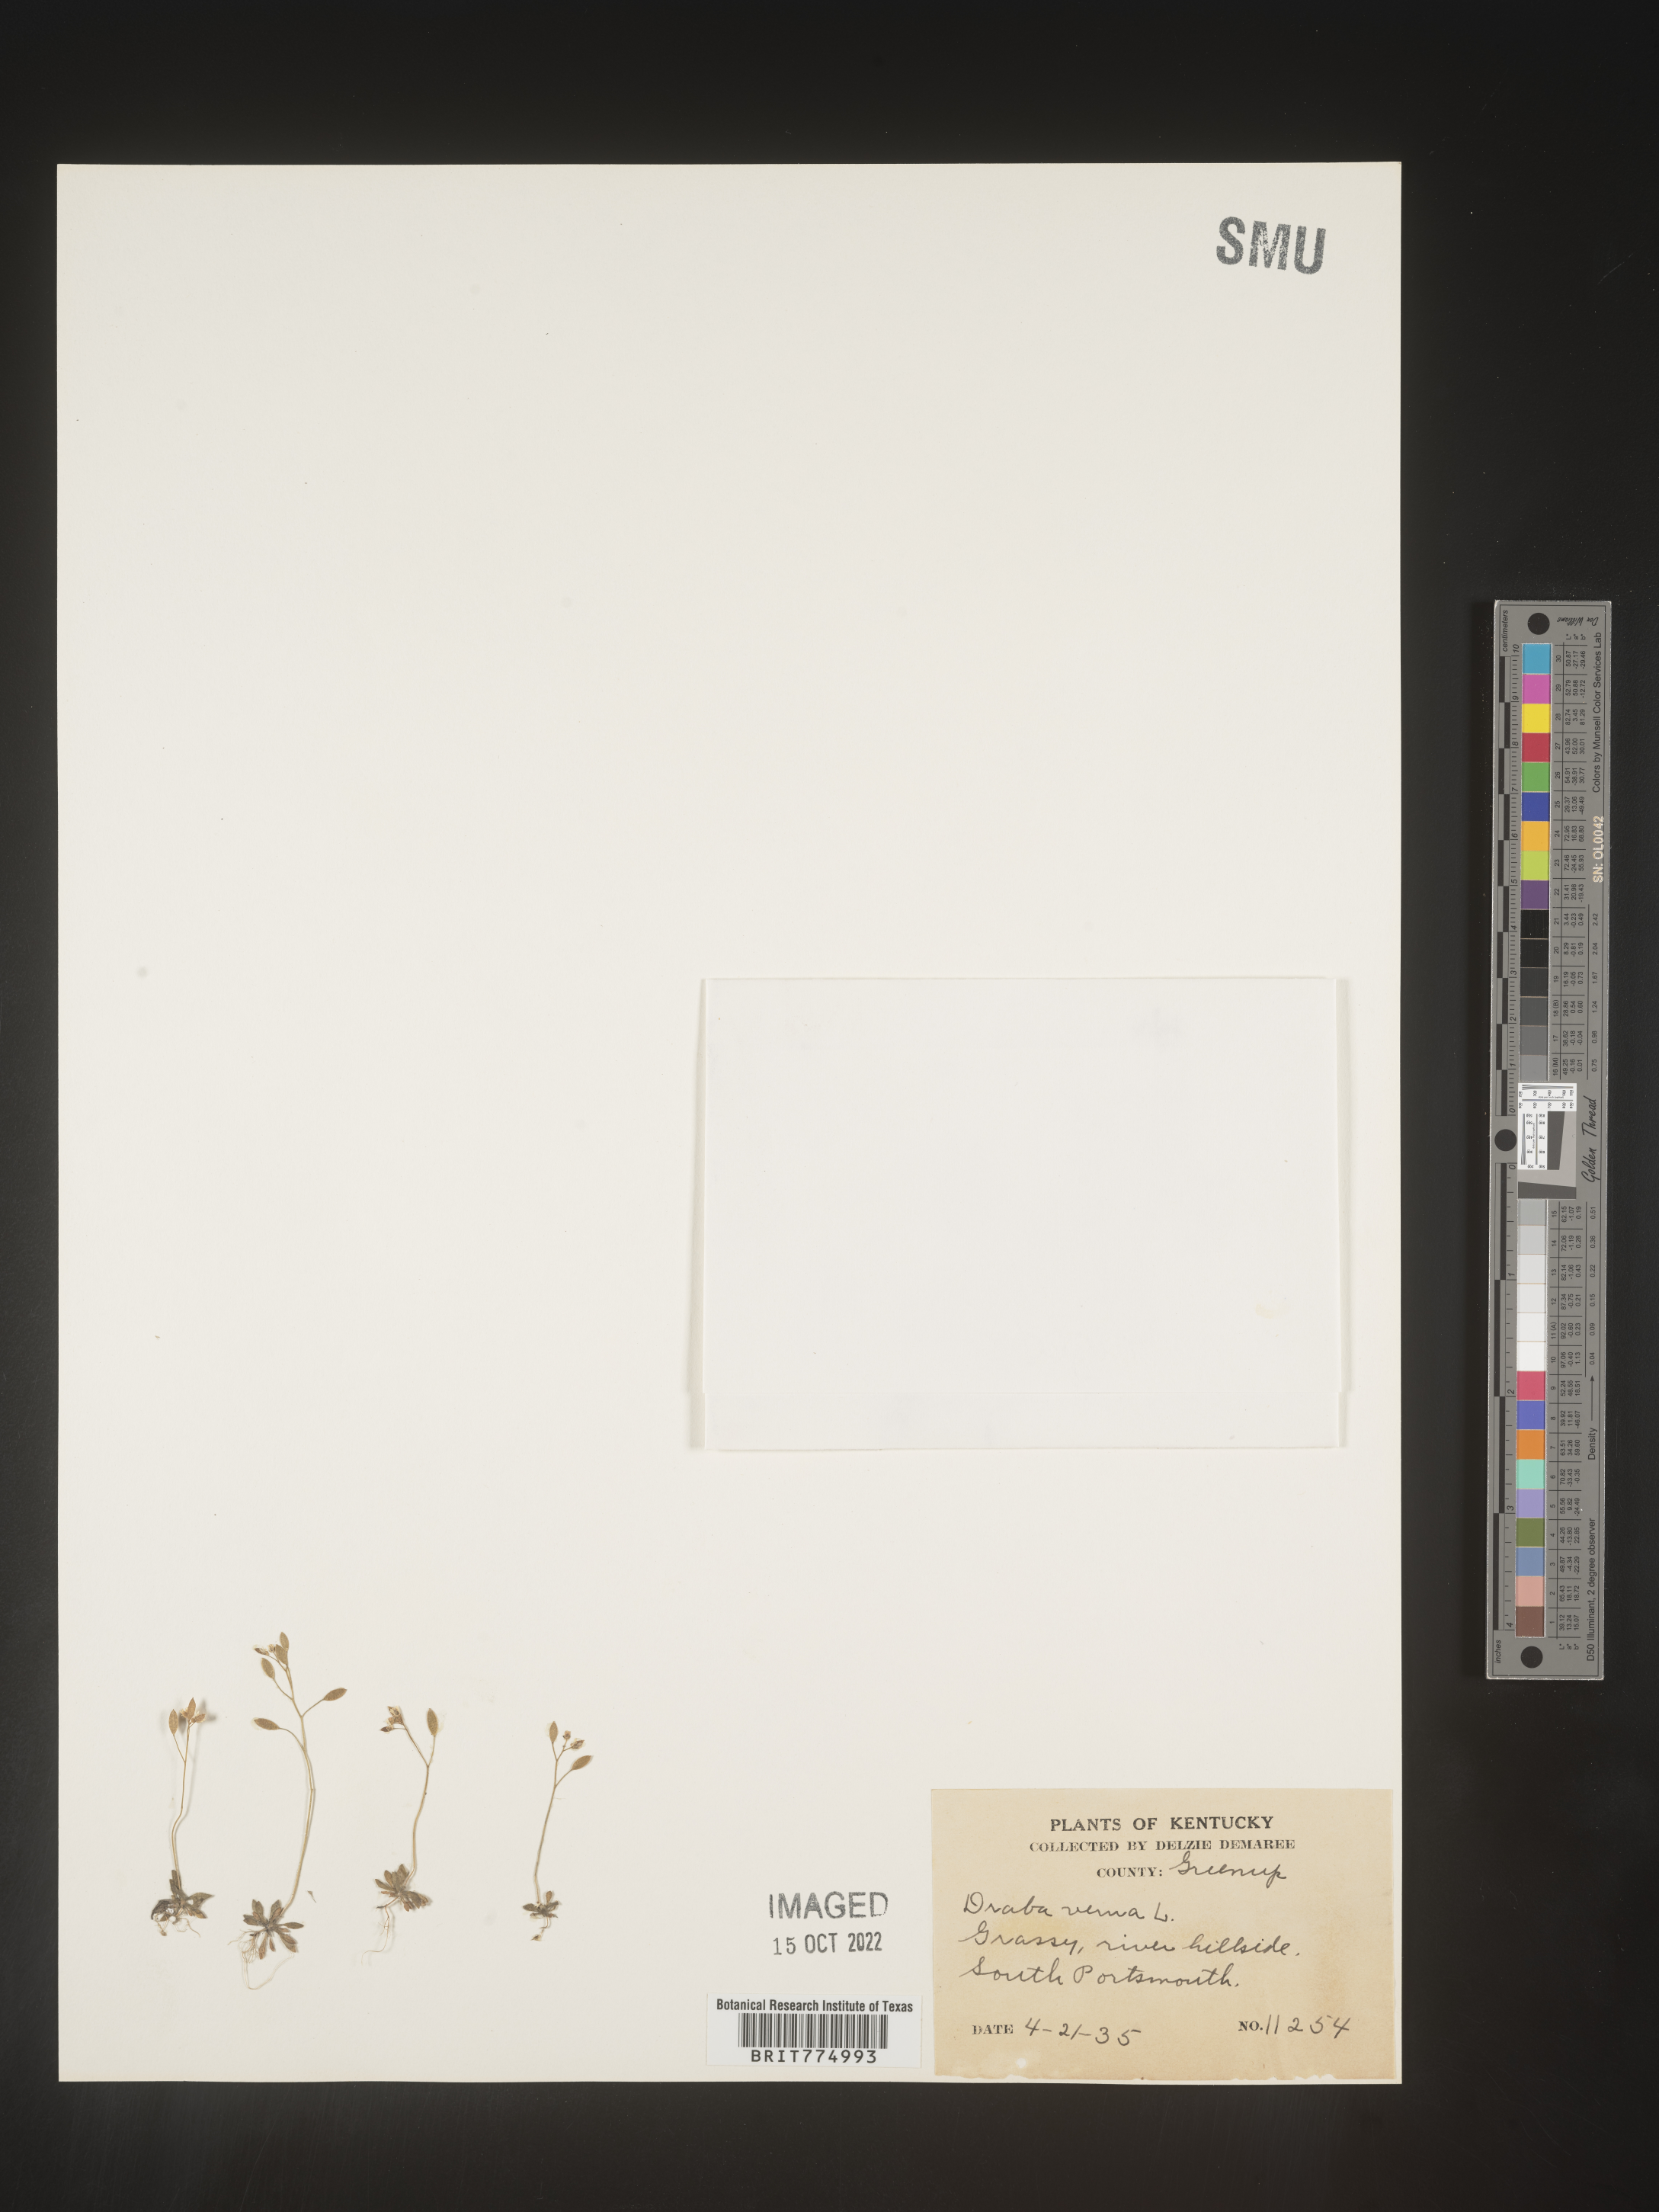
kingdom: Plantae
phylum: Tracheophyta
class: Magnoliopsida
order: Brassicales
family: Brassicaceae
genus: Draba
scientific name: Draba verna
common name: Spring draba
